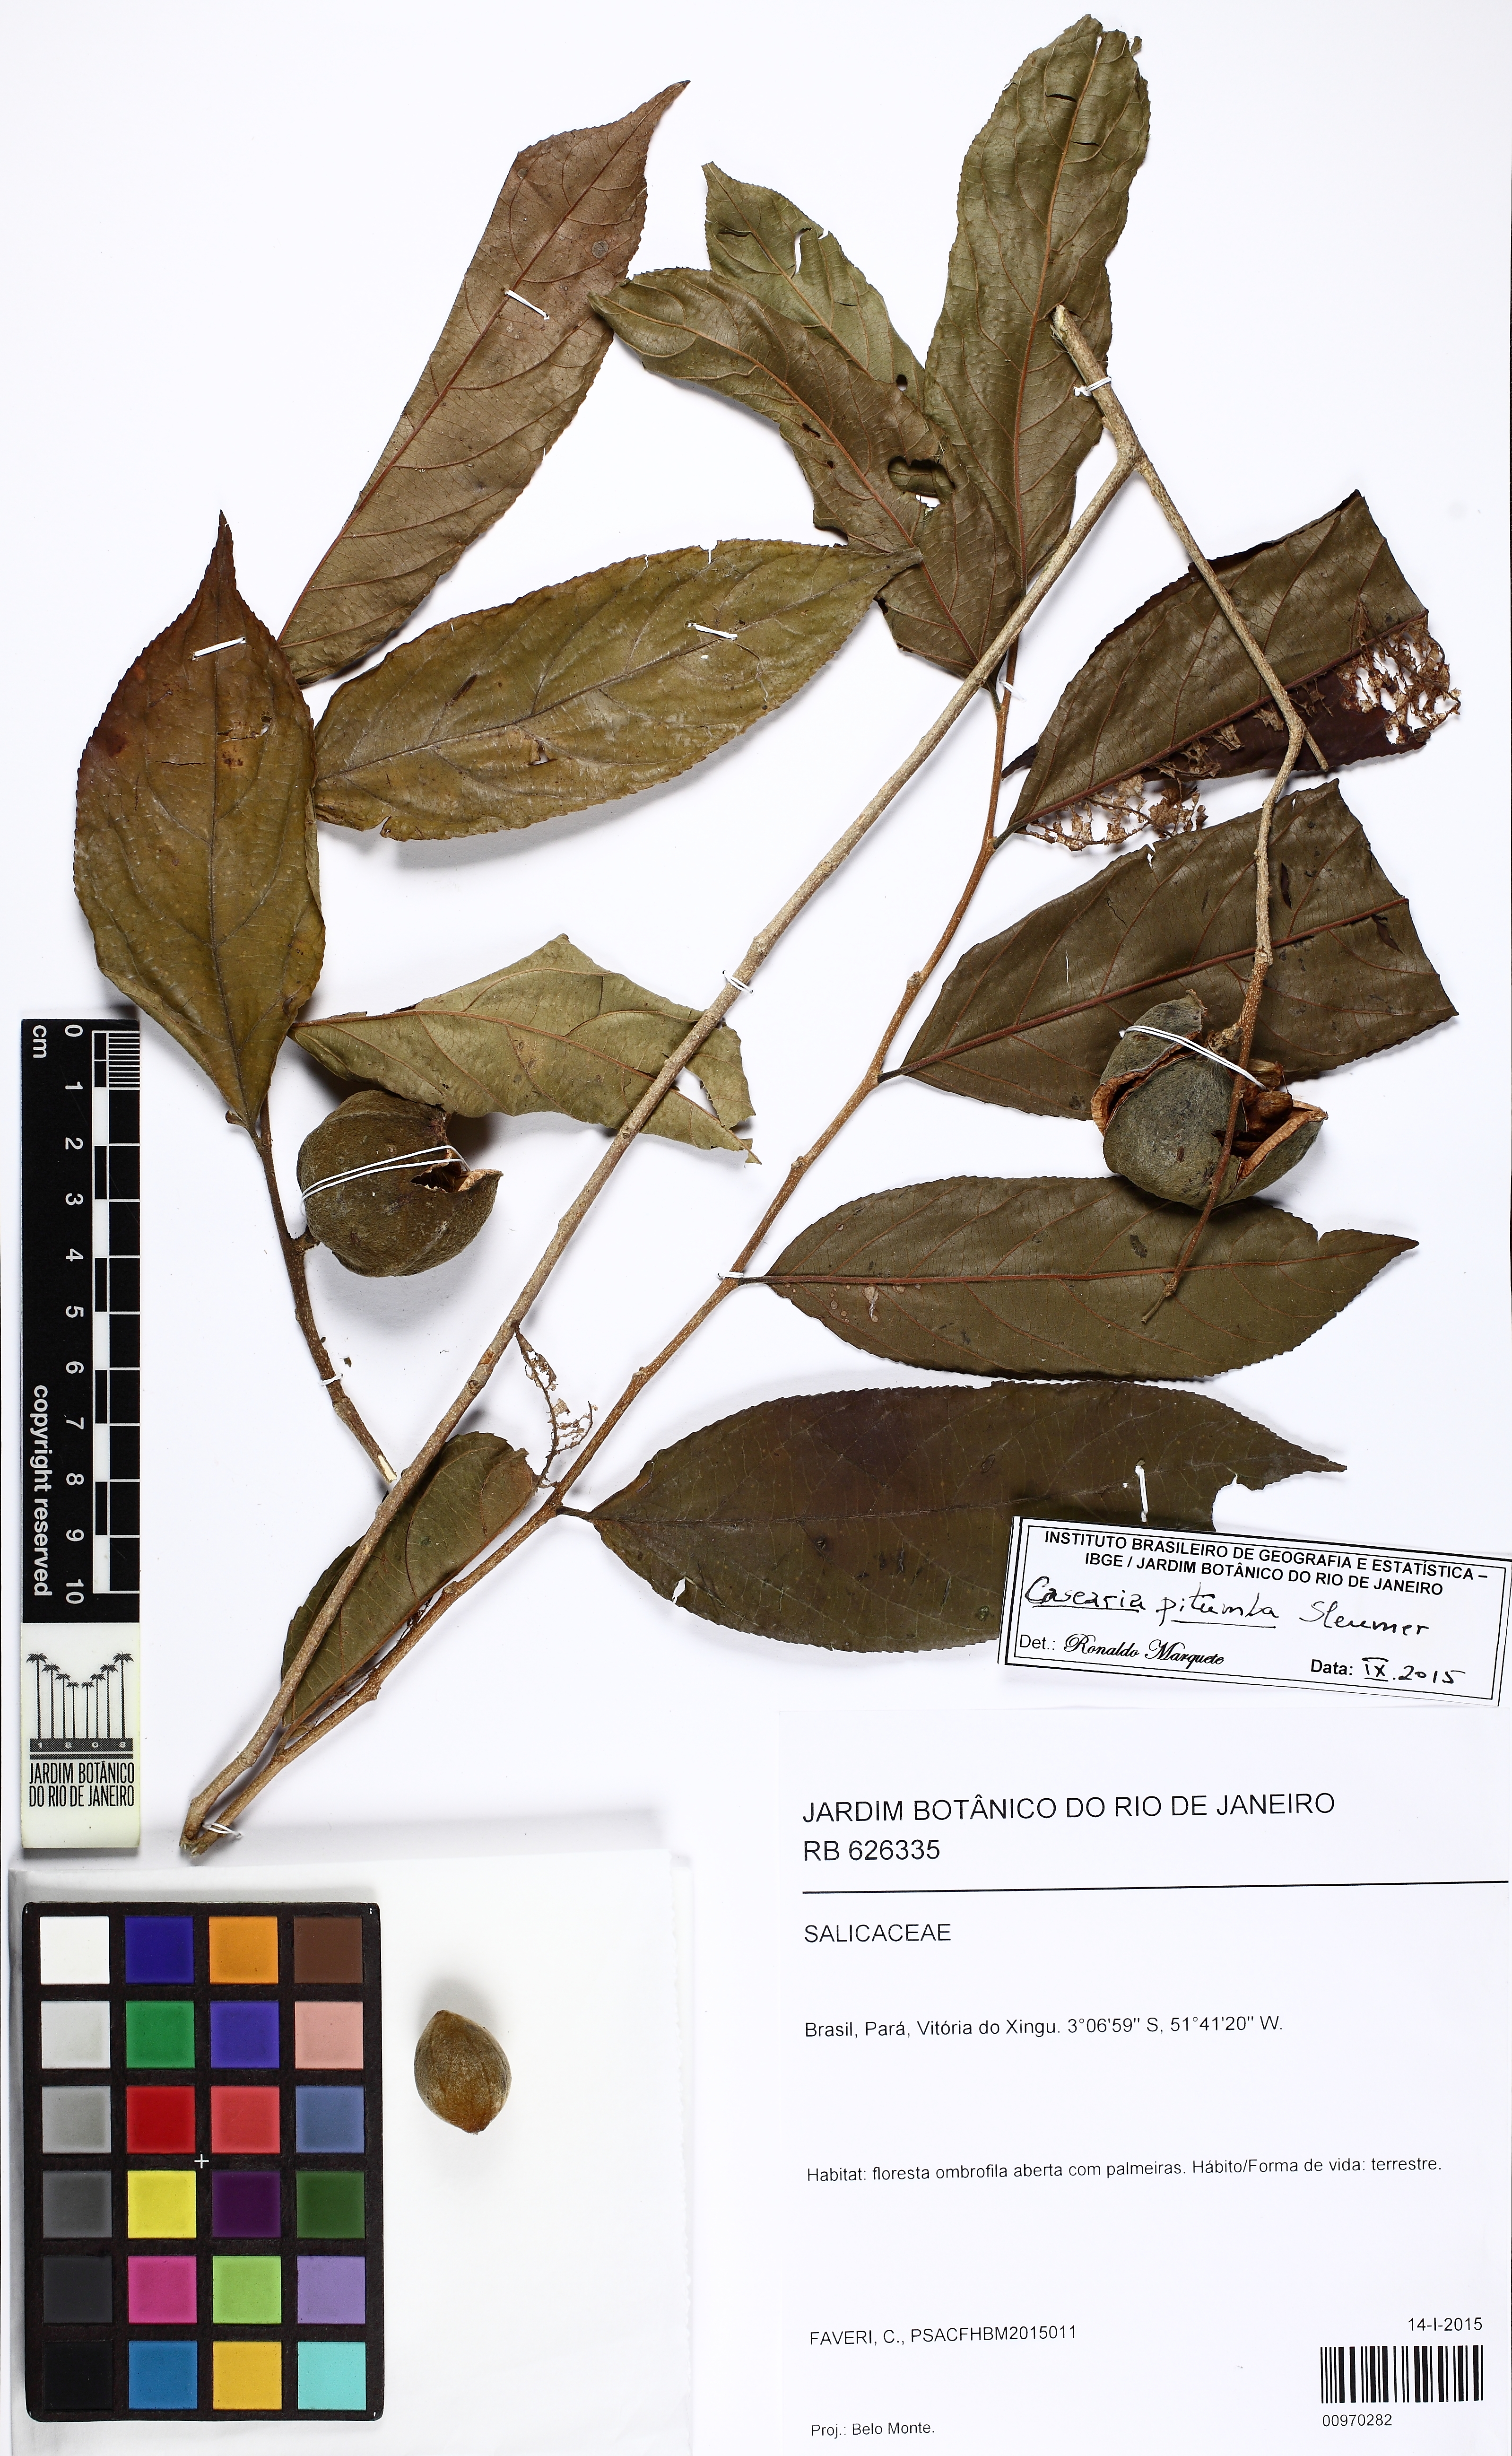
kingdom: Plantae
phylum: Tracheophyta
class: Magnoliopsida
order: Malpighiales
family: Salicaceae
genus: Casearia
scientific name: Casearia pitumba
